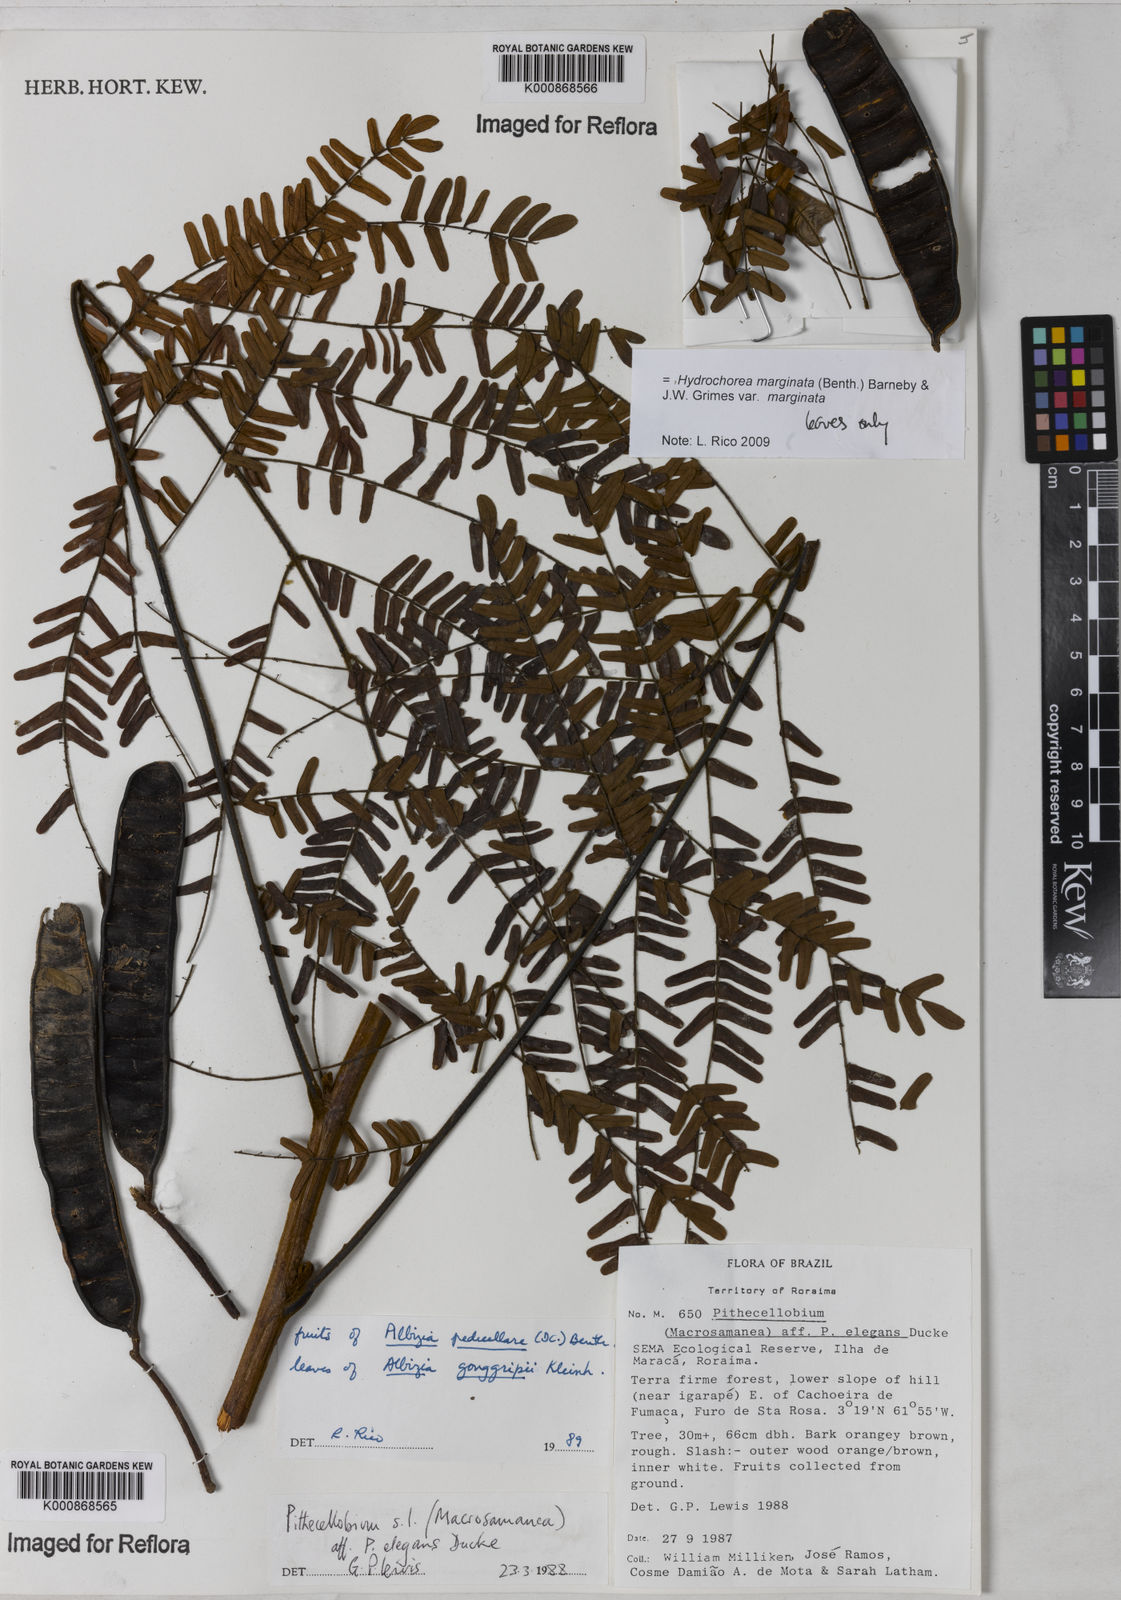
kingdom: Plantae
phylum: Tracheophyta
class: Magnoliopsida
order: Fabales
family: Fabaceae
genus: Hydrochorea
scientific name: Hydrochorea gonggrijpii
